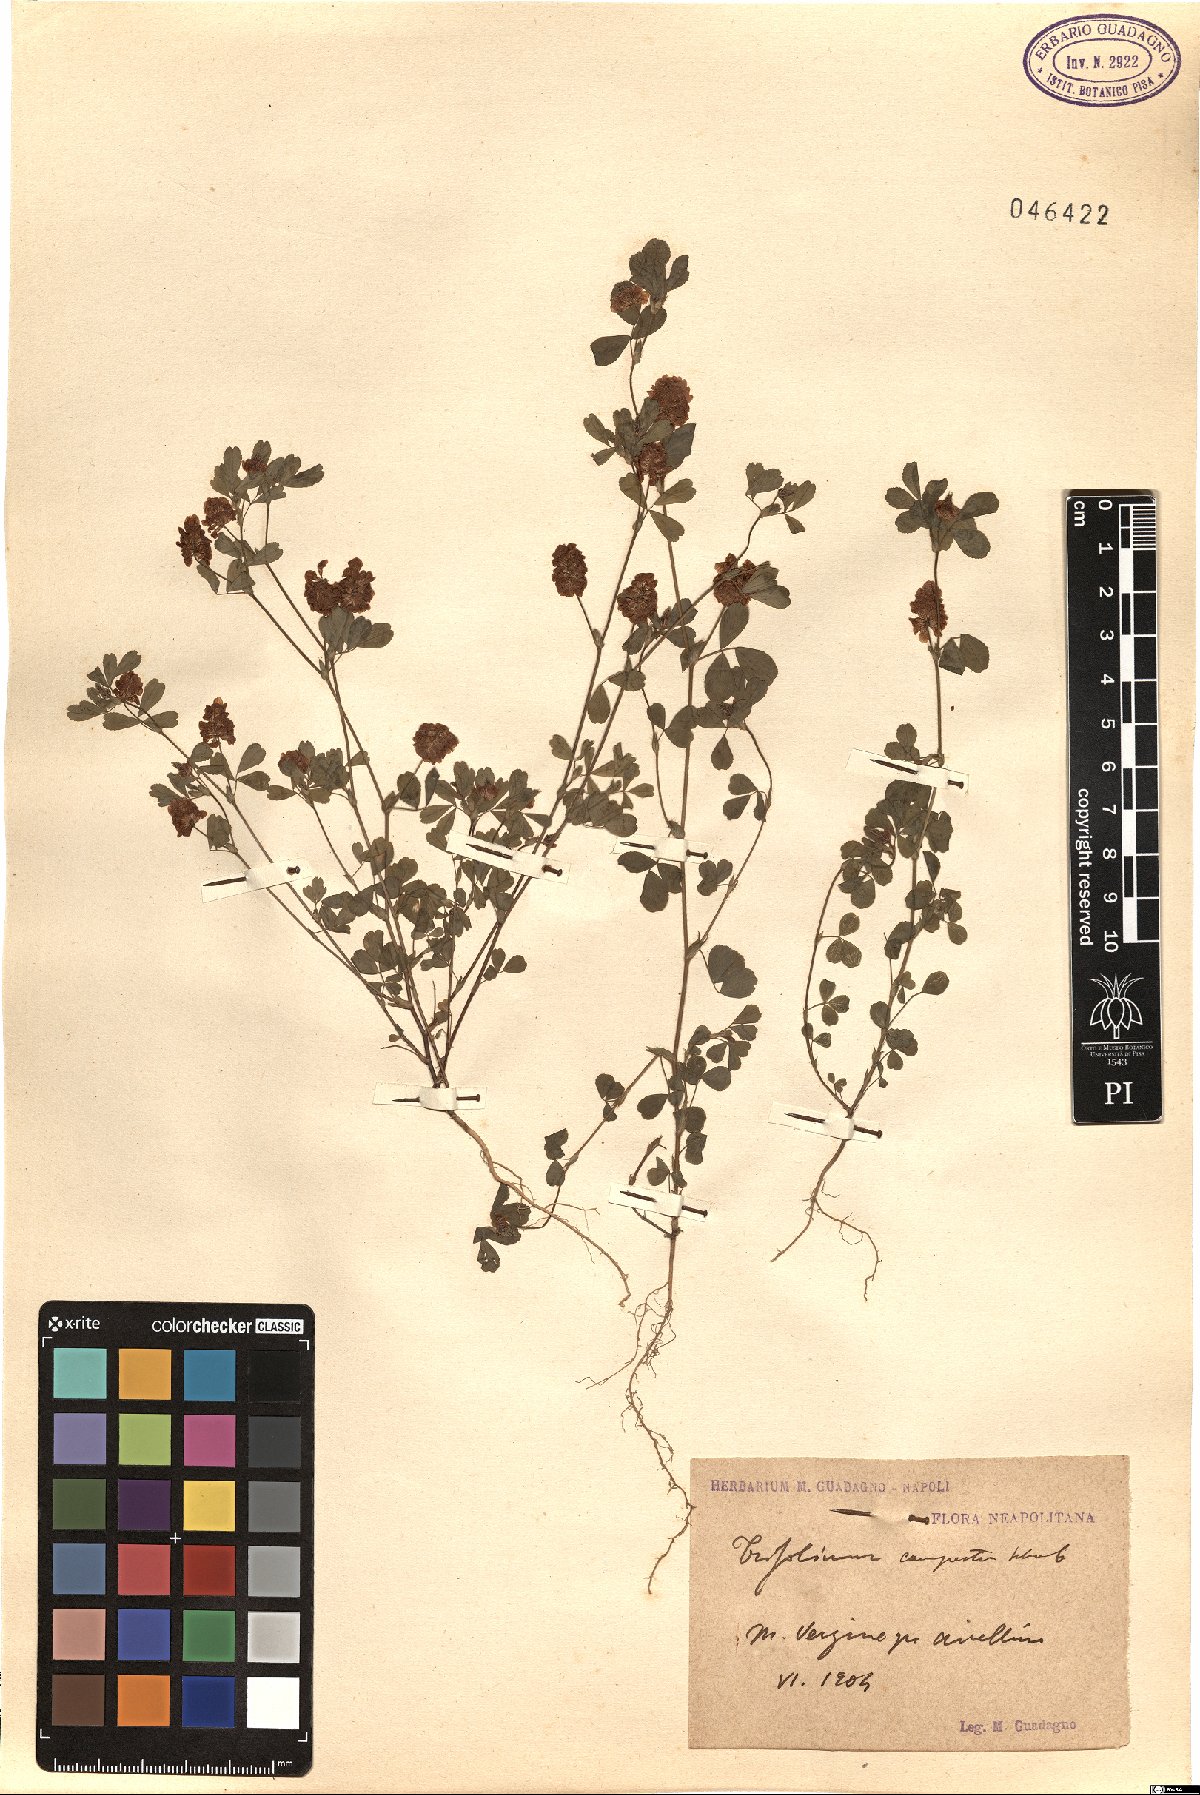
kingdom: Plantae
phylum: Tracheophyta
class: Magnoliopsida
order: Fabales
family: Fabaceae
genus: Trifolium
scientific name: Trifolium campestre
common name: Field clover
